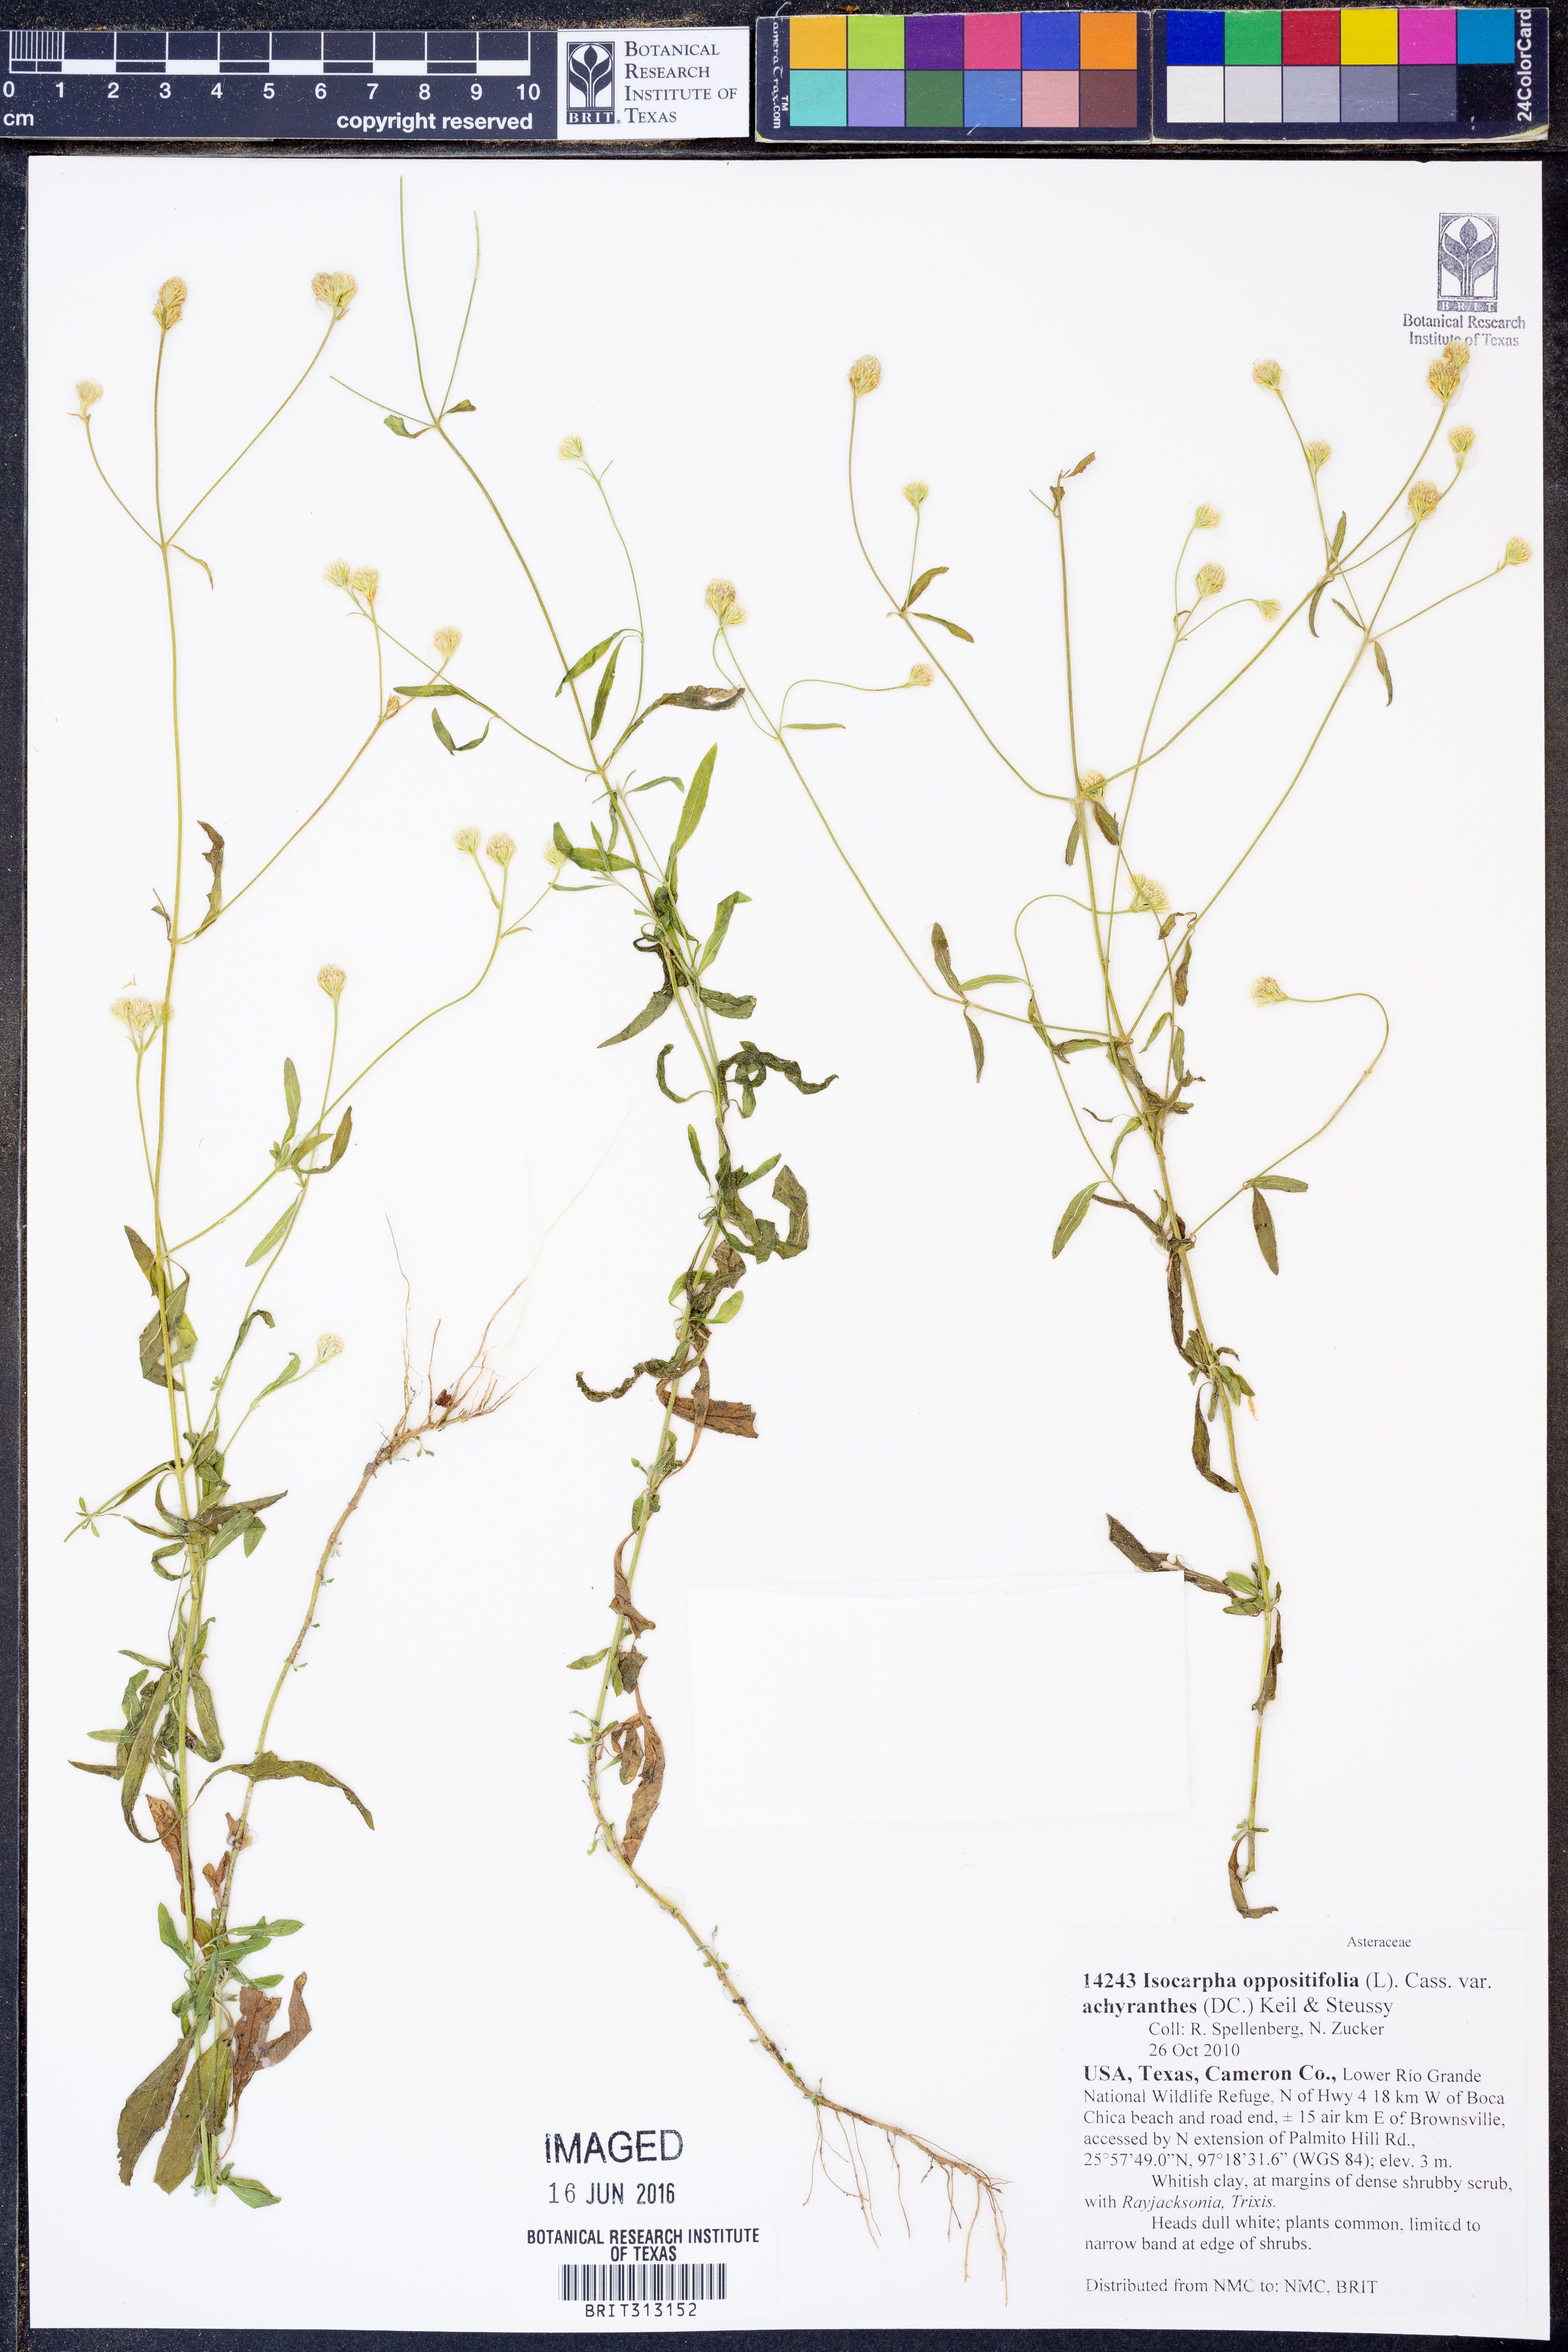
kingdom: Plantae
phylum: Tracheophyta
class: Magnoliopsida
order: Asterales
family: Asteraceae
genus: Isocarpha
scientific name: Isocarpha oppositifolia
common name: Rio grande pearlhead
